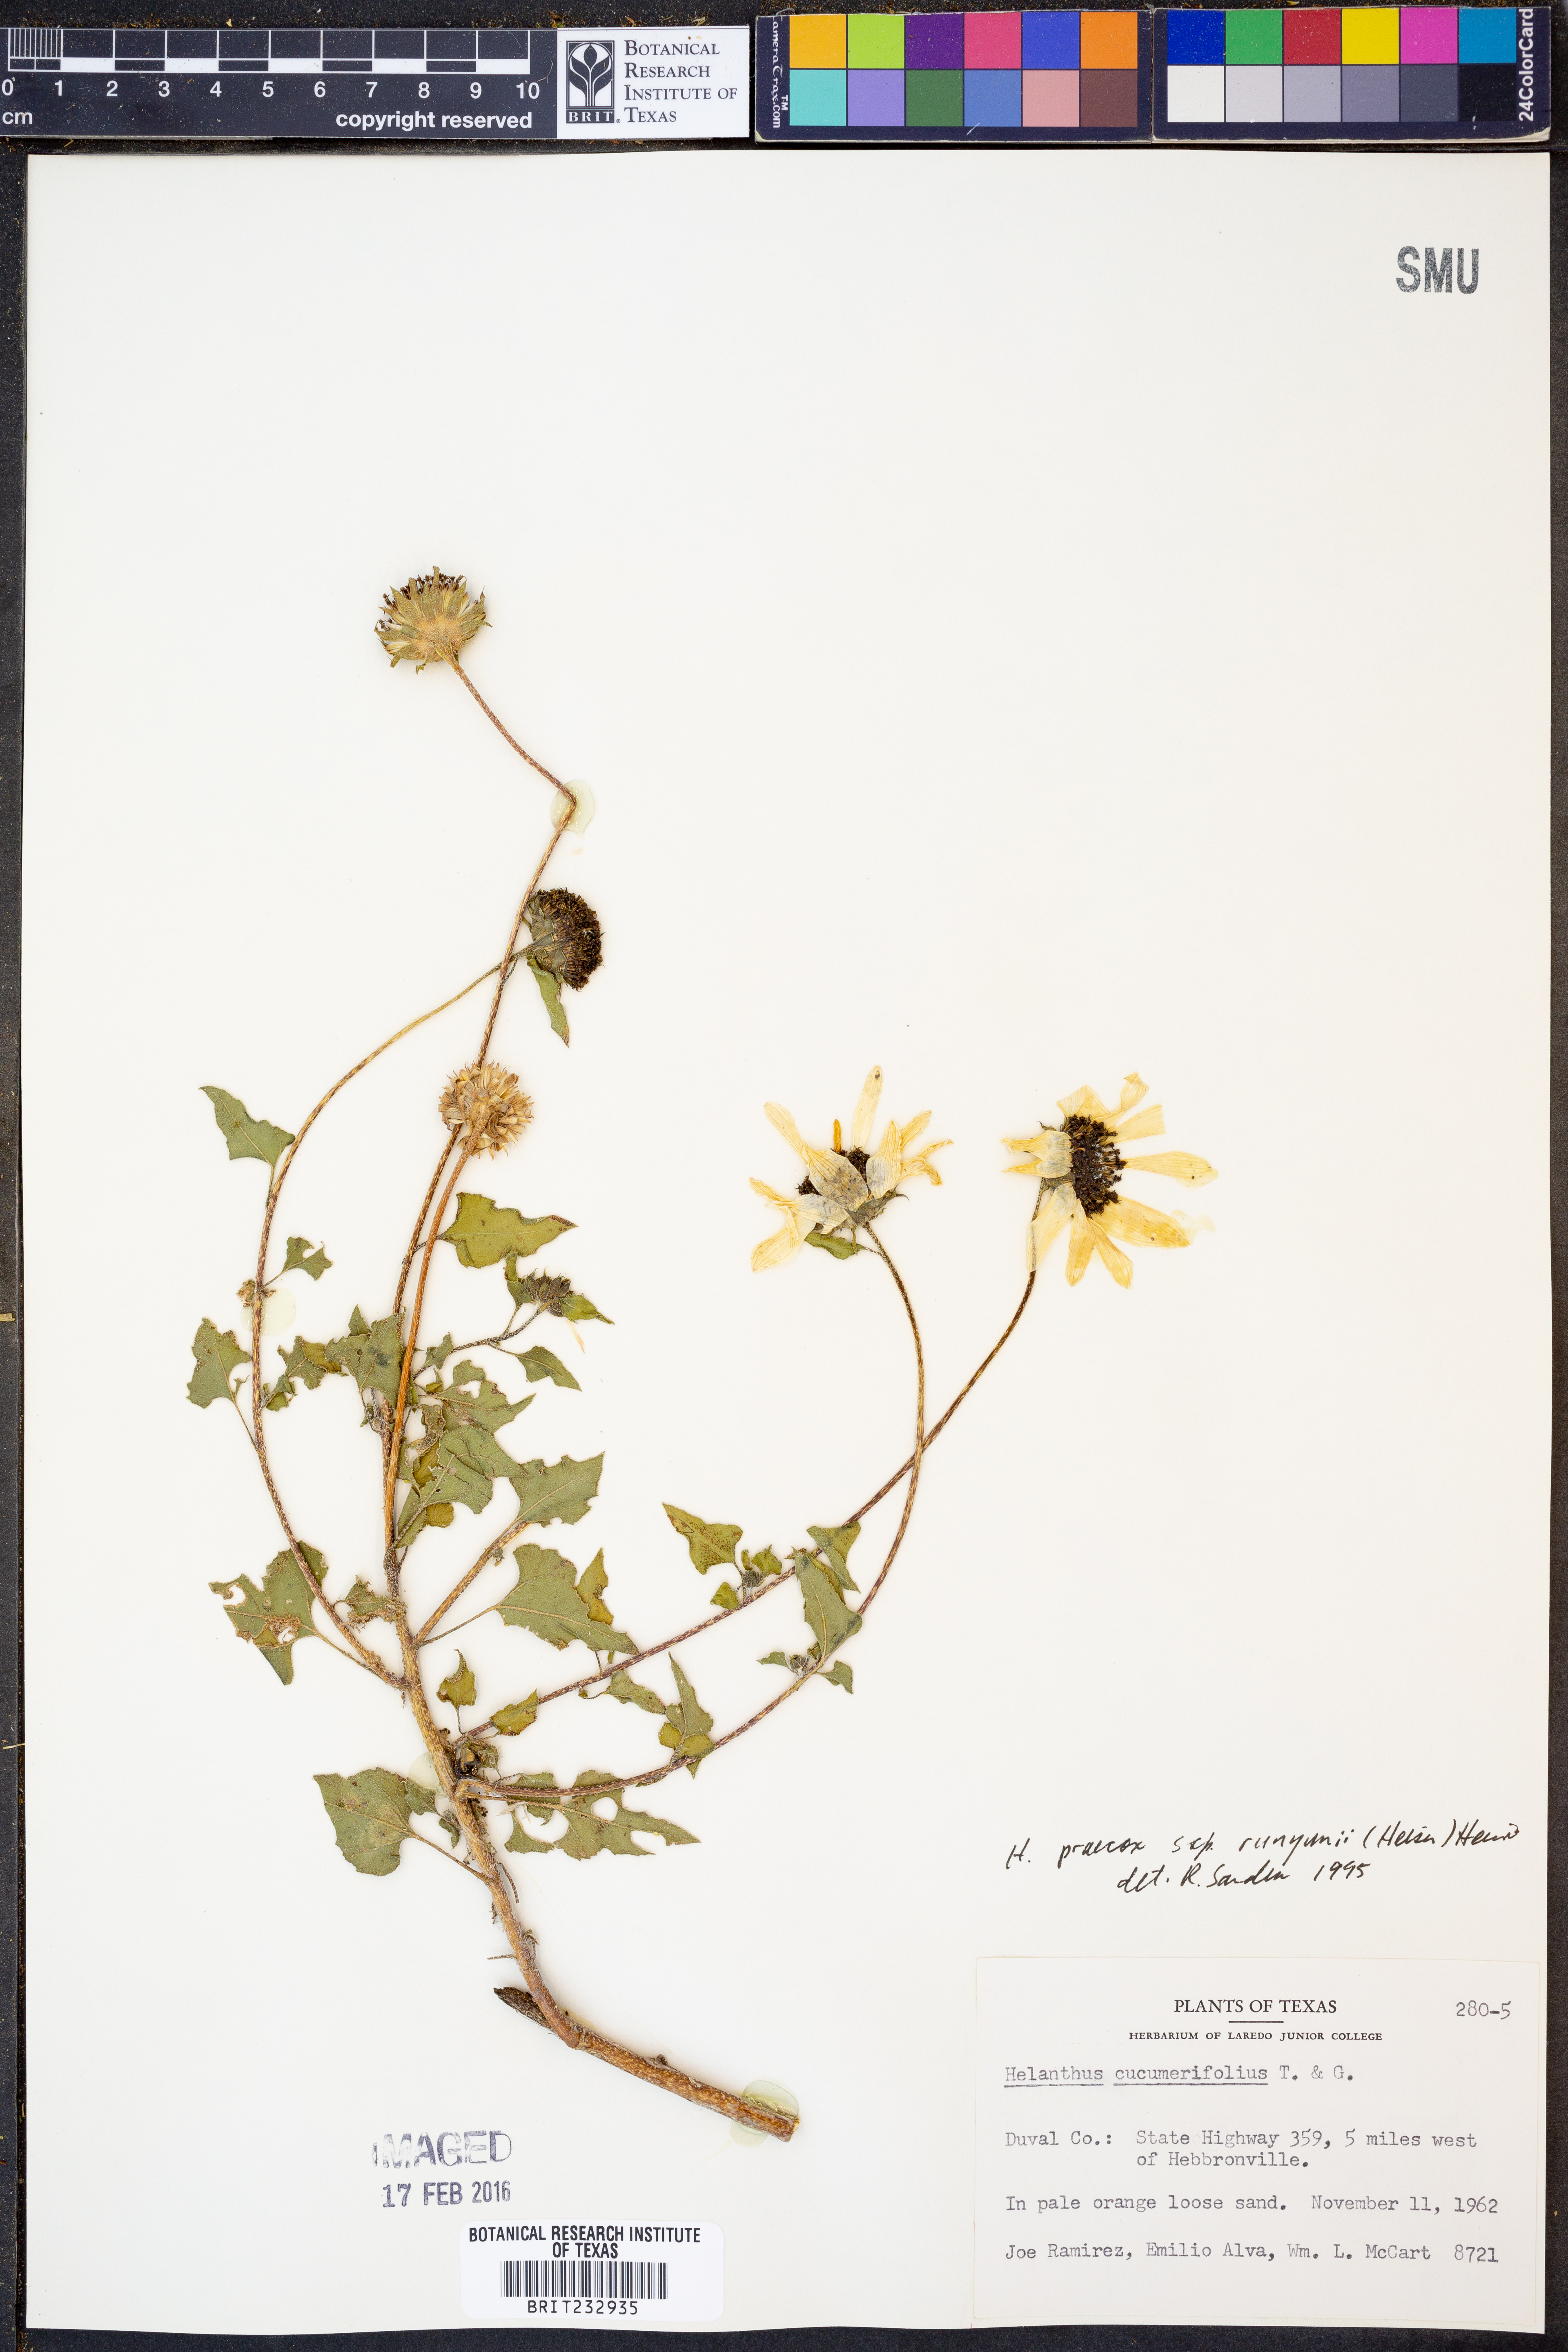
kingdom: Plantae
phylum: Tracheophyta
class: Magnoliopsida
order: Asterales
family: Asteraceae
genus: Helianthus
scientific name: Helianthus praecox
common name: Texas sunflower
